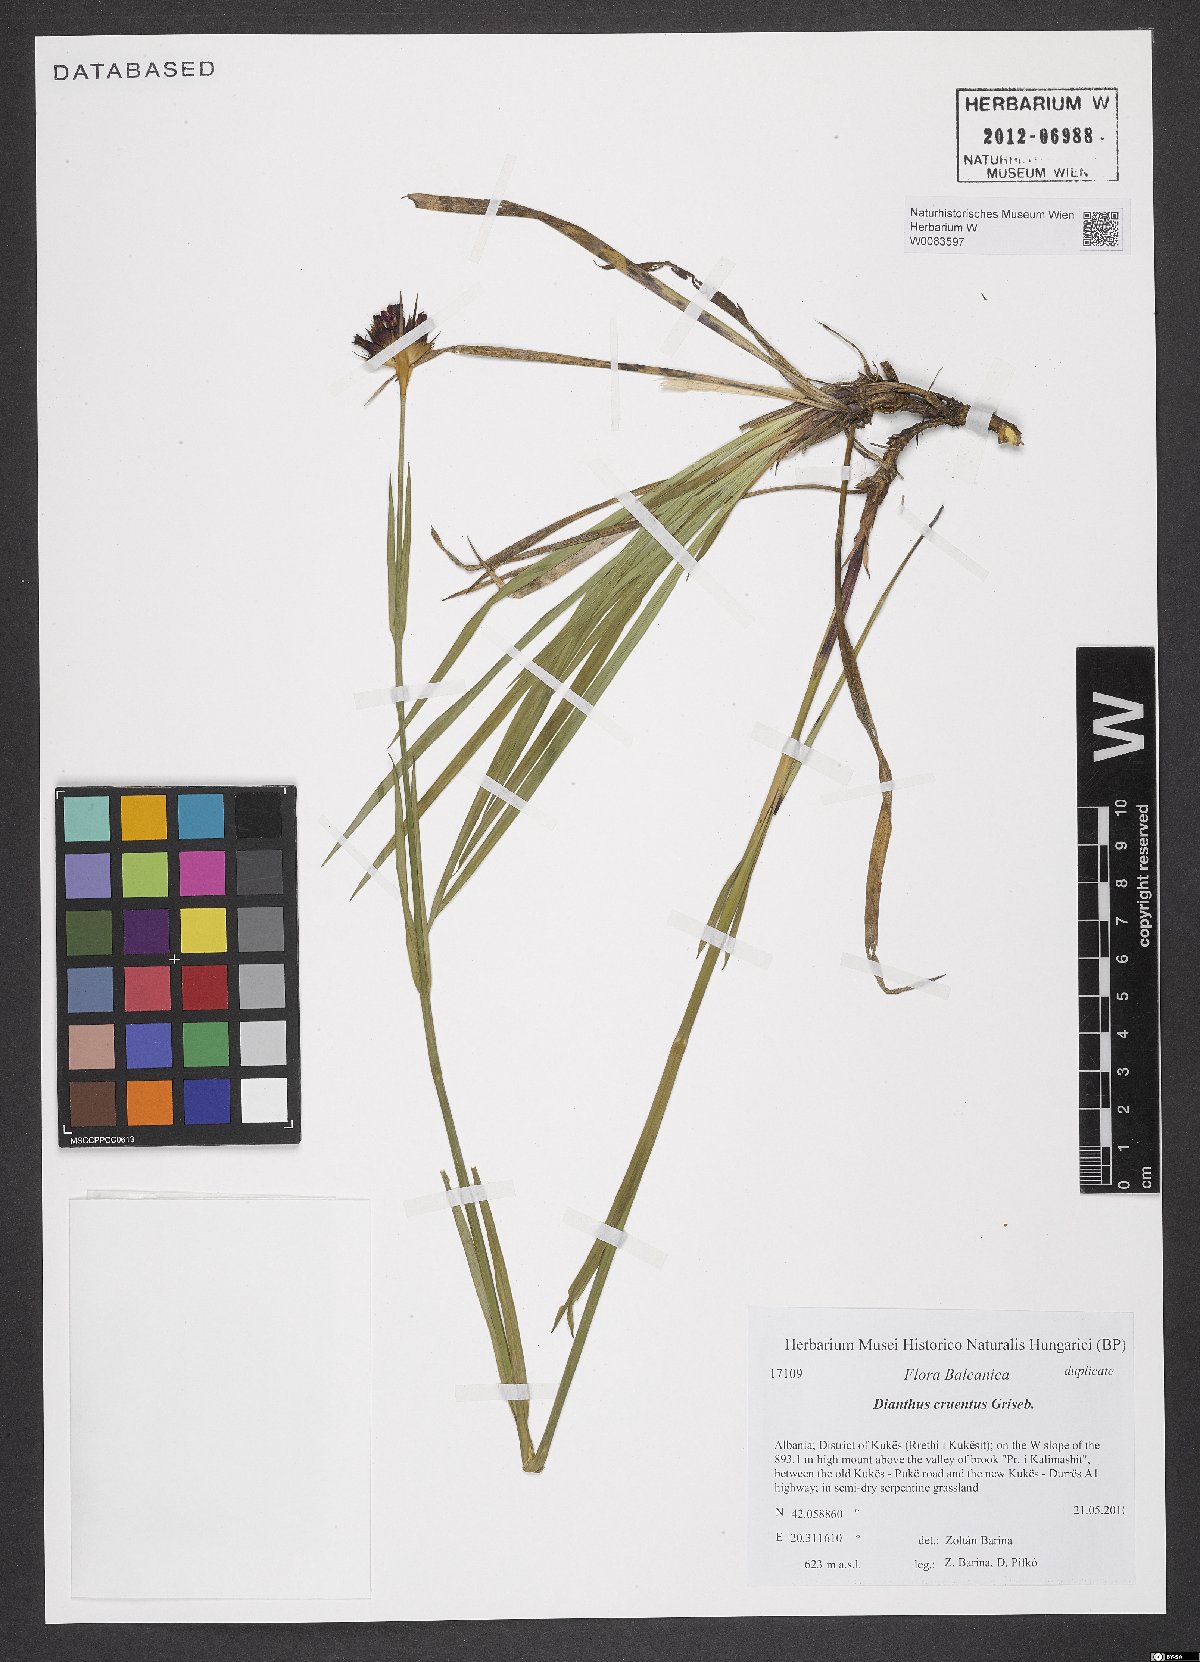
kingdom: Plantae
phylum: Tracheophyta
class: Magnoliopsida
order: Caryophyllales
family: Caryophyllaceae
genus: Dianthus
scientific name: Dianthus cruentus
